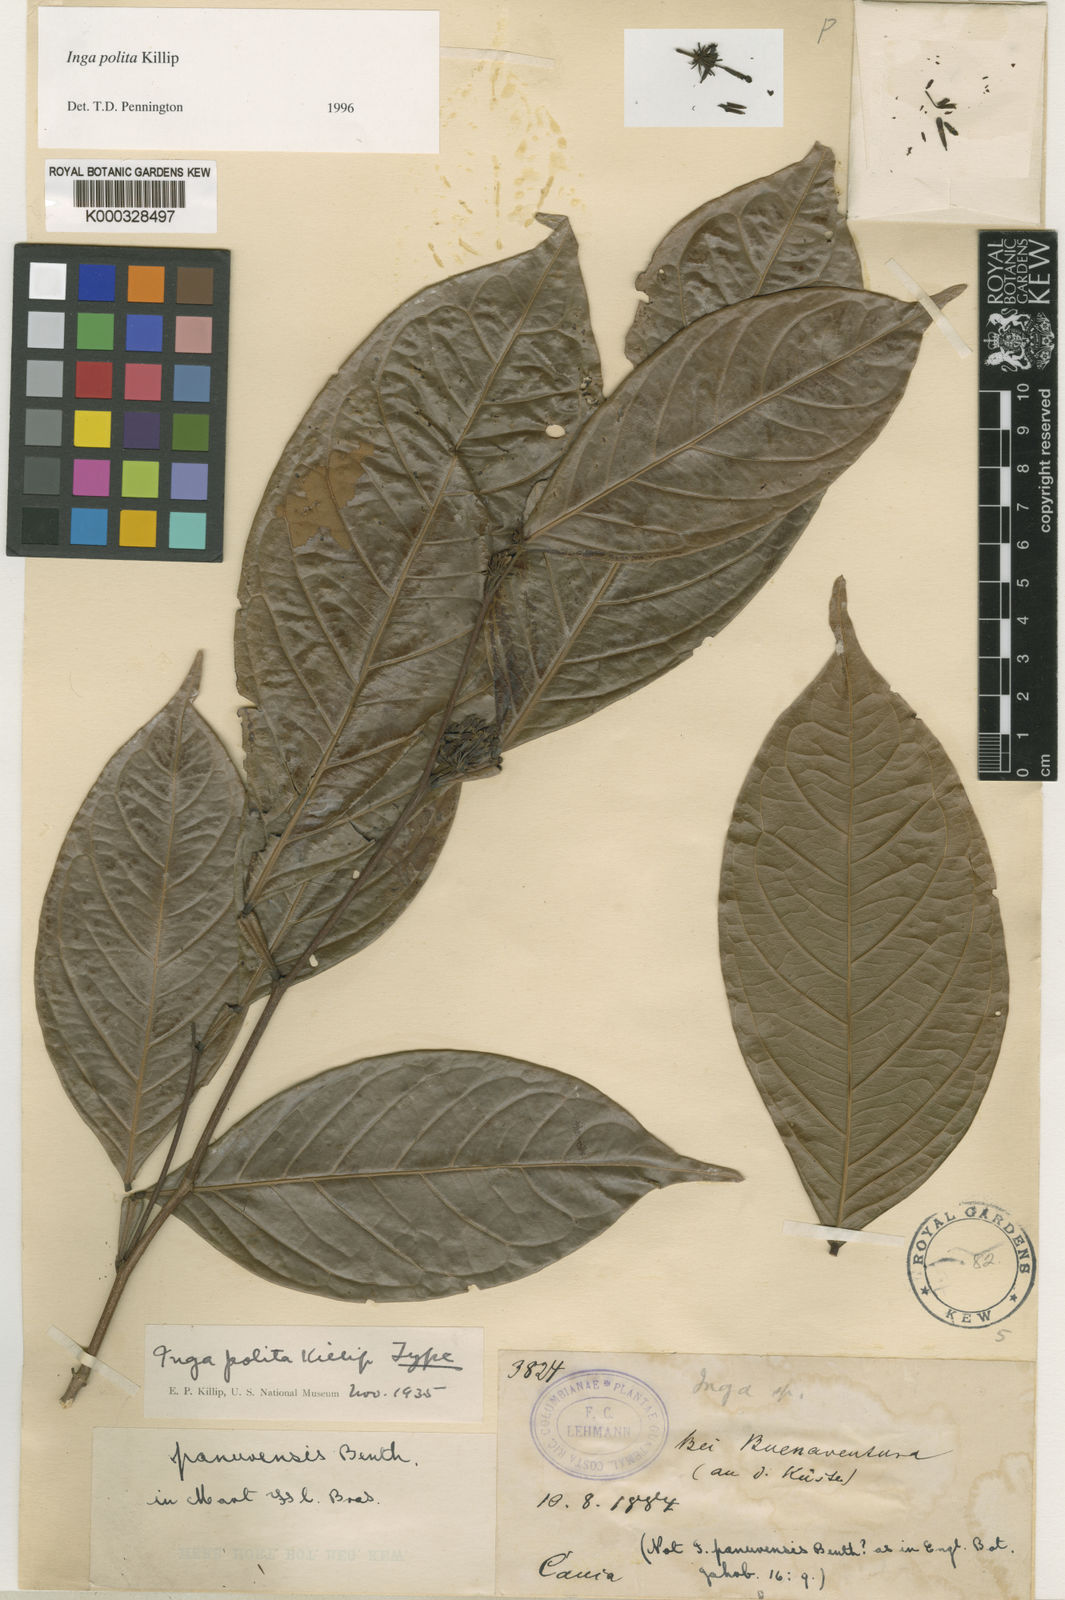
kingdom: Plantae
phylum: Tracheophyta
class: Magnoliopsida
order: Fabales
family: Fabaceae
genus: Inga
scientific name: Inga polita
